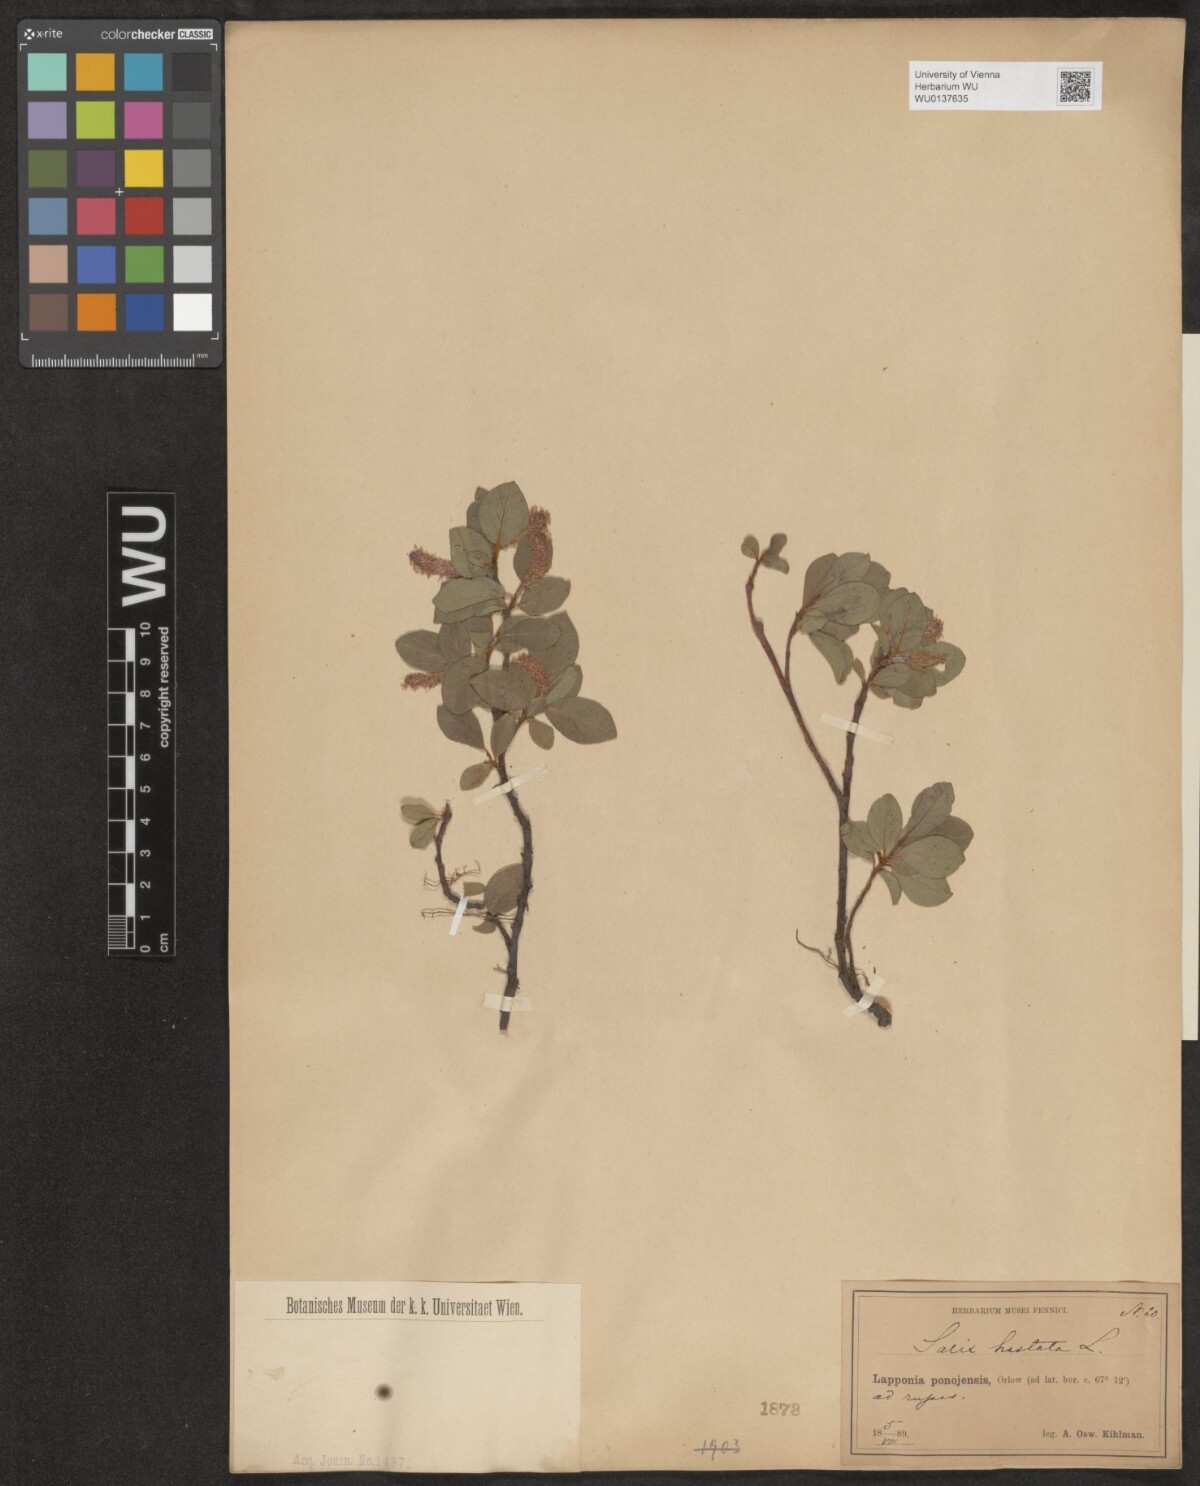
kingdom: Plantae
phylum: Tracheophyta
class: Magnoliopsida
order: Malpighiales
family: Salicaceae
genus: Salix
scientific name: Salix hastata
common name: Halberd willow
